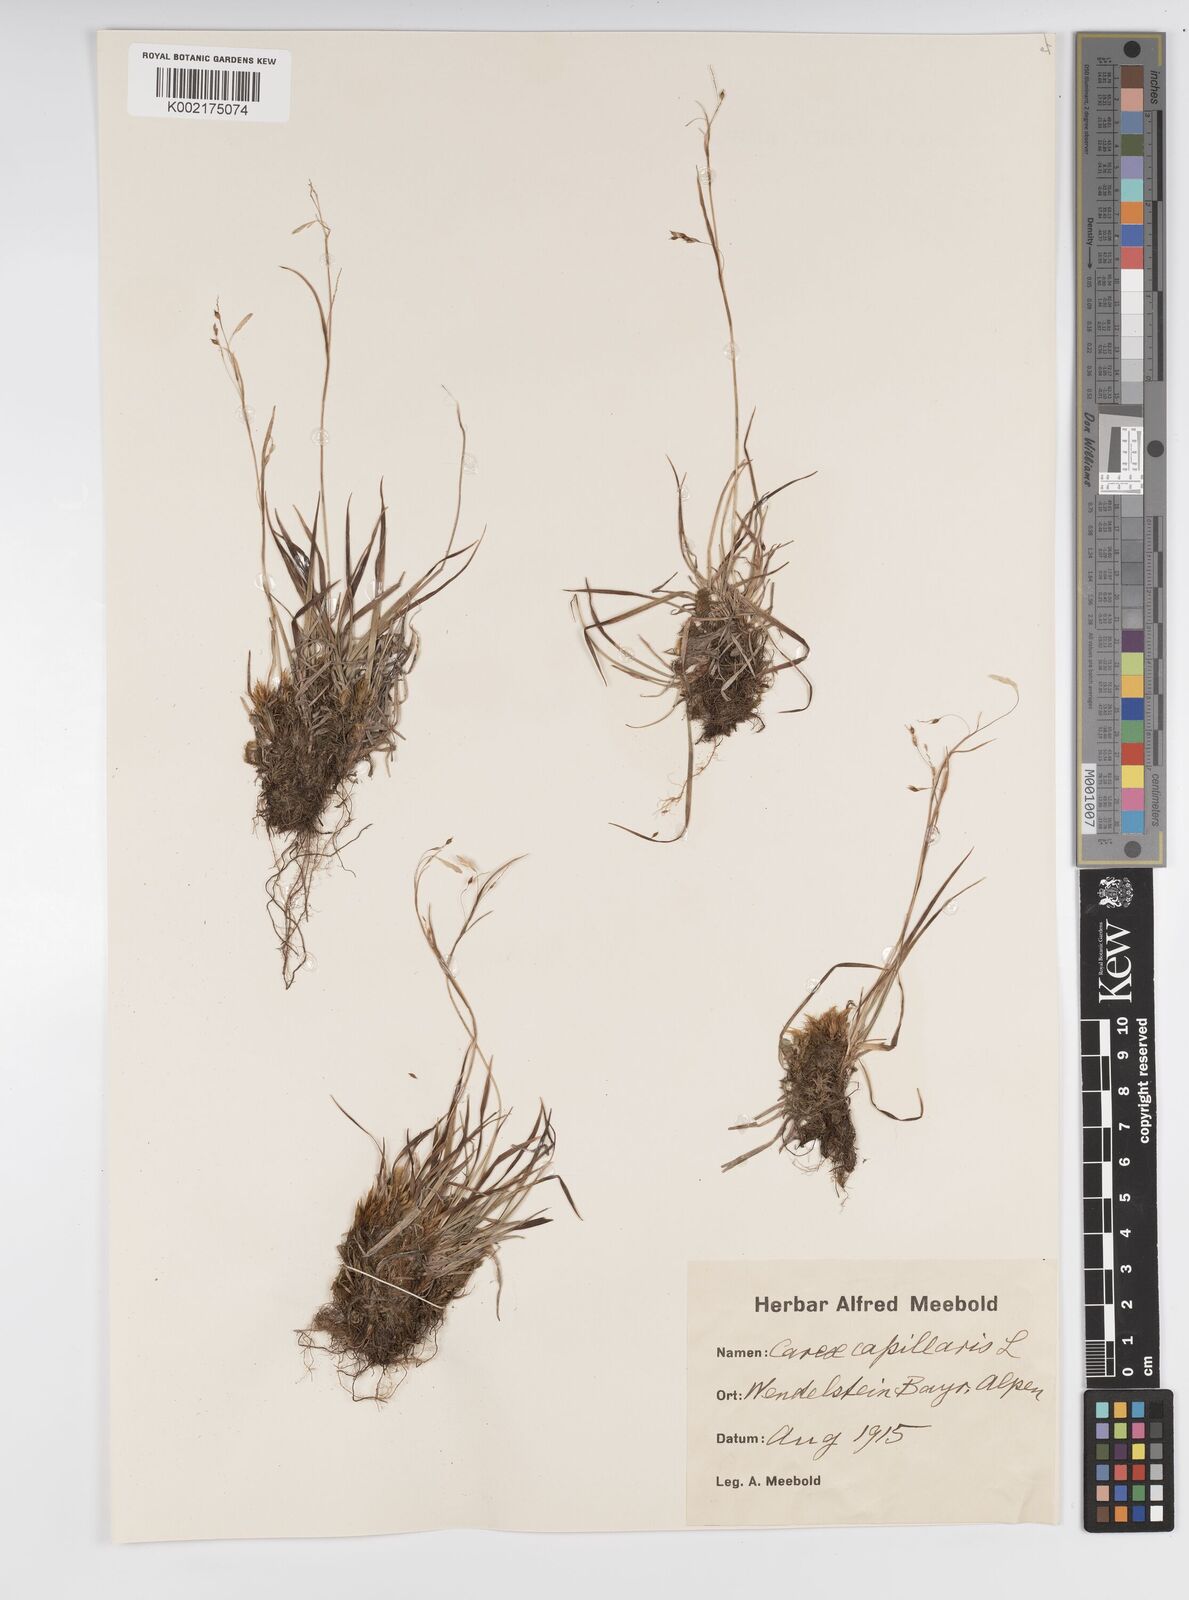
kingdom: Plantae
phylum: Tracheophyta
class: Liliopsida
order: Poales
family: Cyperaceae
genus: Carex
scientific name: Carex capillaris
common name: Hair sedge
